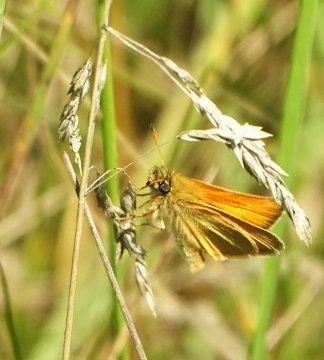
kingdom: Animalia
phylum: Arthropoda
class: Insecta
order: Lepidoptera
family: Hesperiidae
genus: Thymelicus
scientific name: Thymelicus lineola
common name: European Skipper
